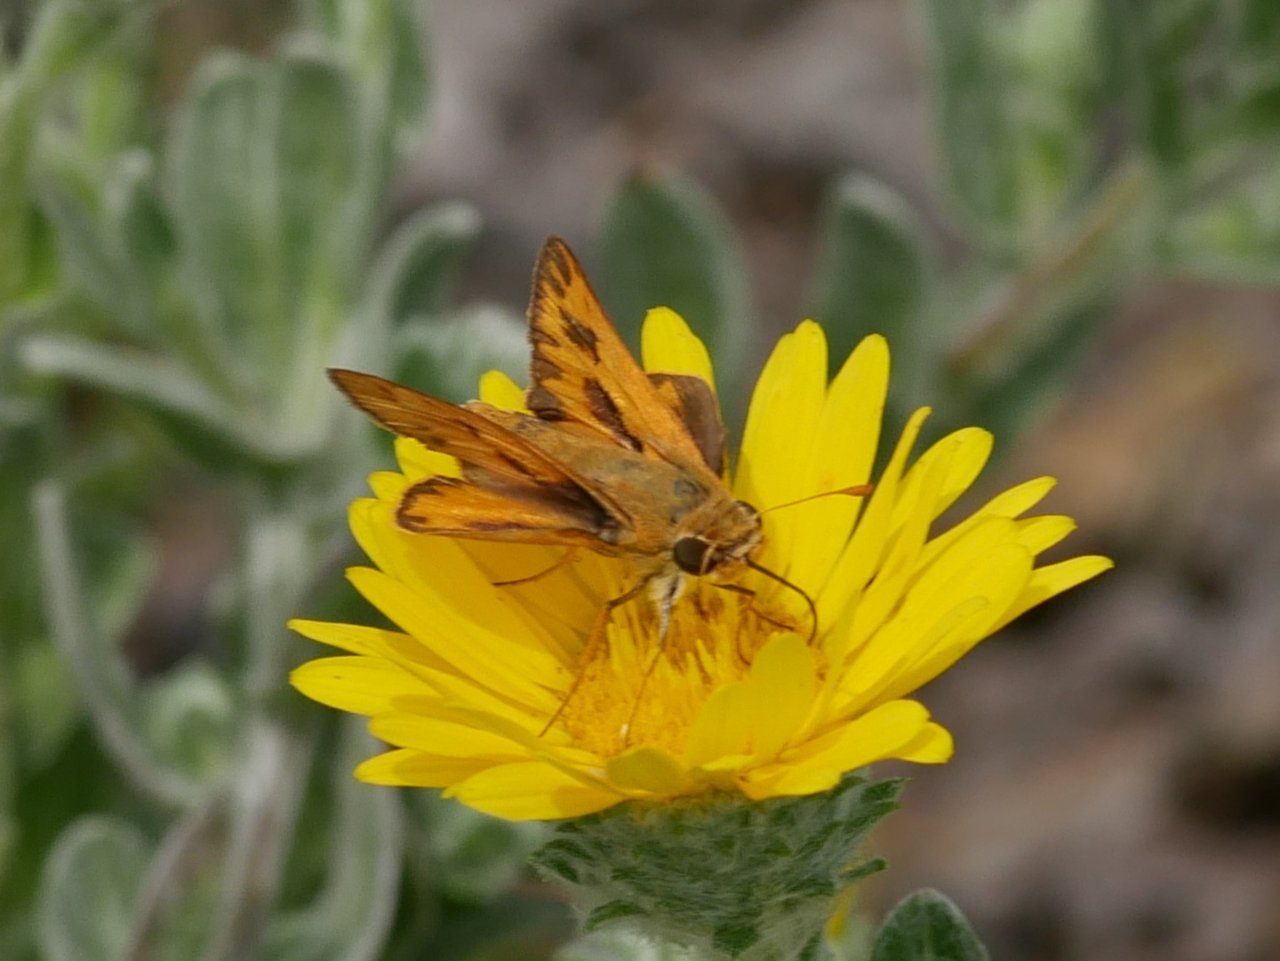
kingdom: Animalia
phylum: Arthropoda
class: Insecta
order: Lepidoptera
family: Hesperiidae
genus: Hylephila
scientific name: Hylephila phyleus
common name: Fiery Skipper
